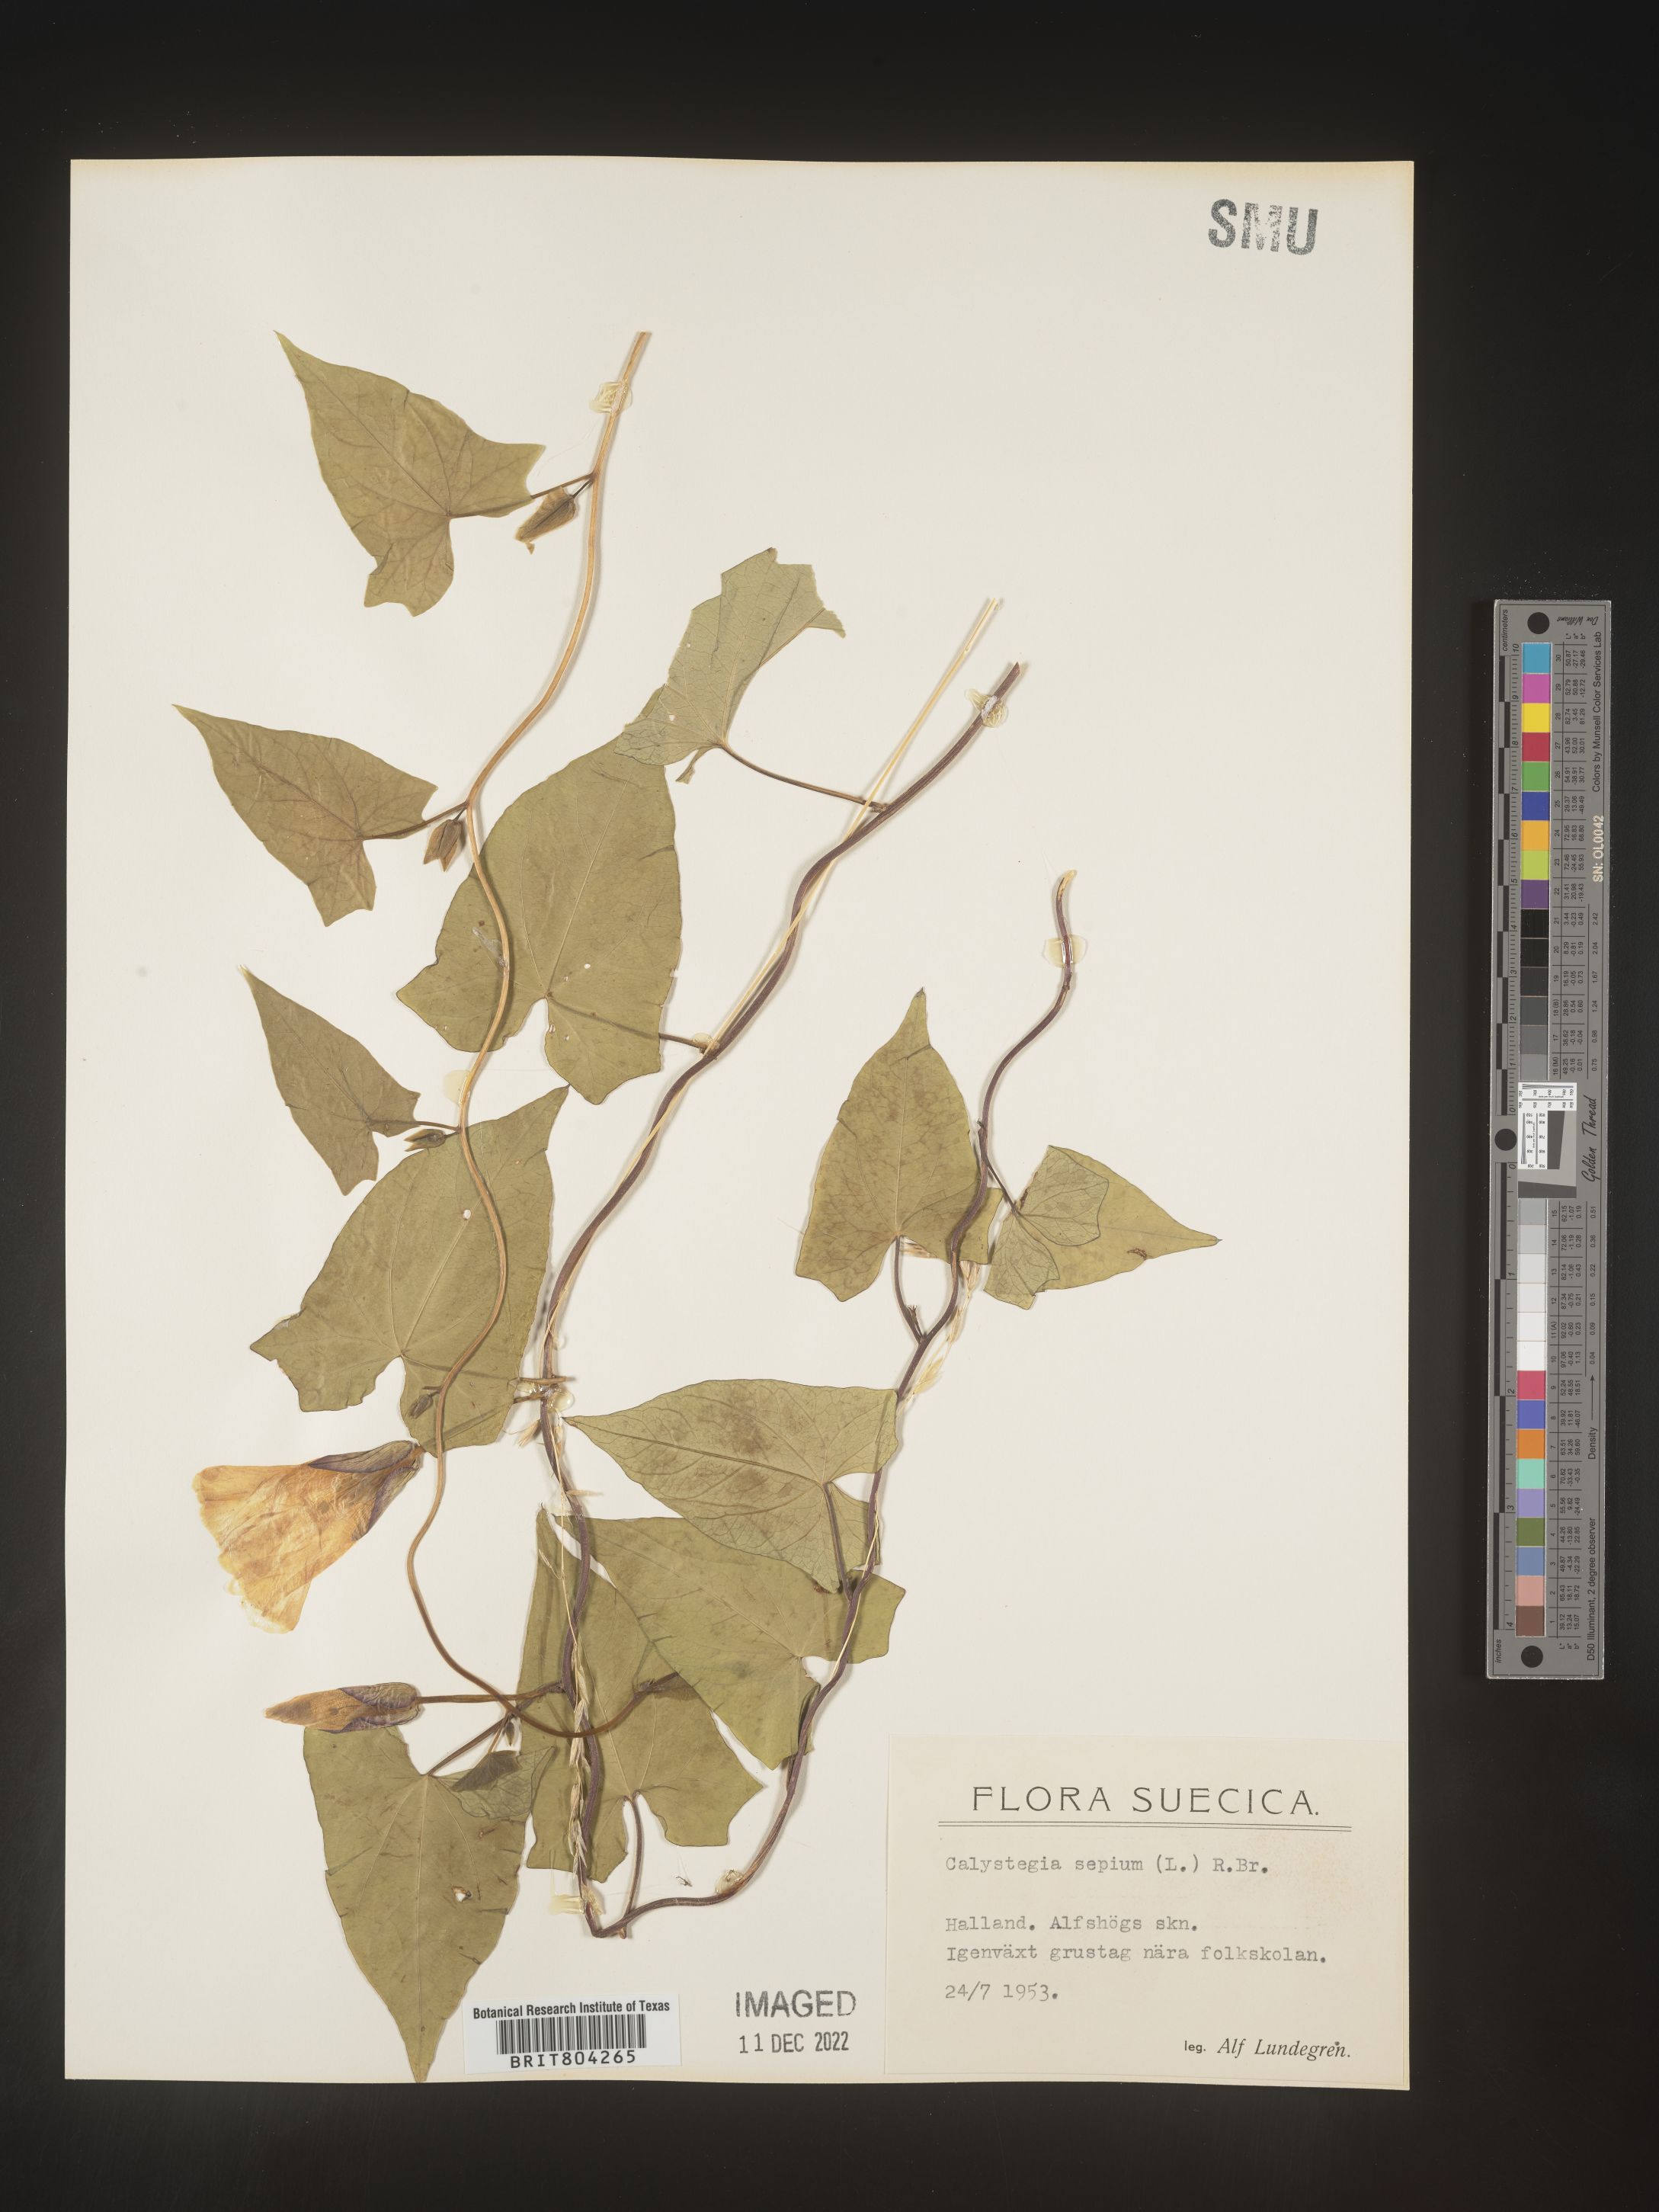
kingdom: Plantae
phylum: Tracheophyta
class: Magnoliopsida
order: Solanales
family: Convolvulaceae
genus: Calystegia
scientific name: Calystegia
